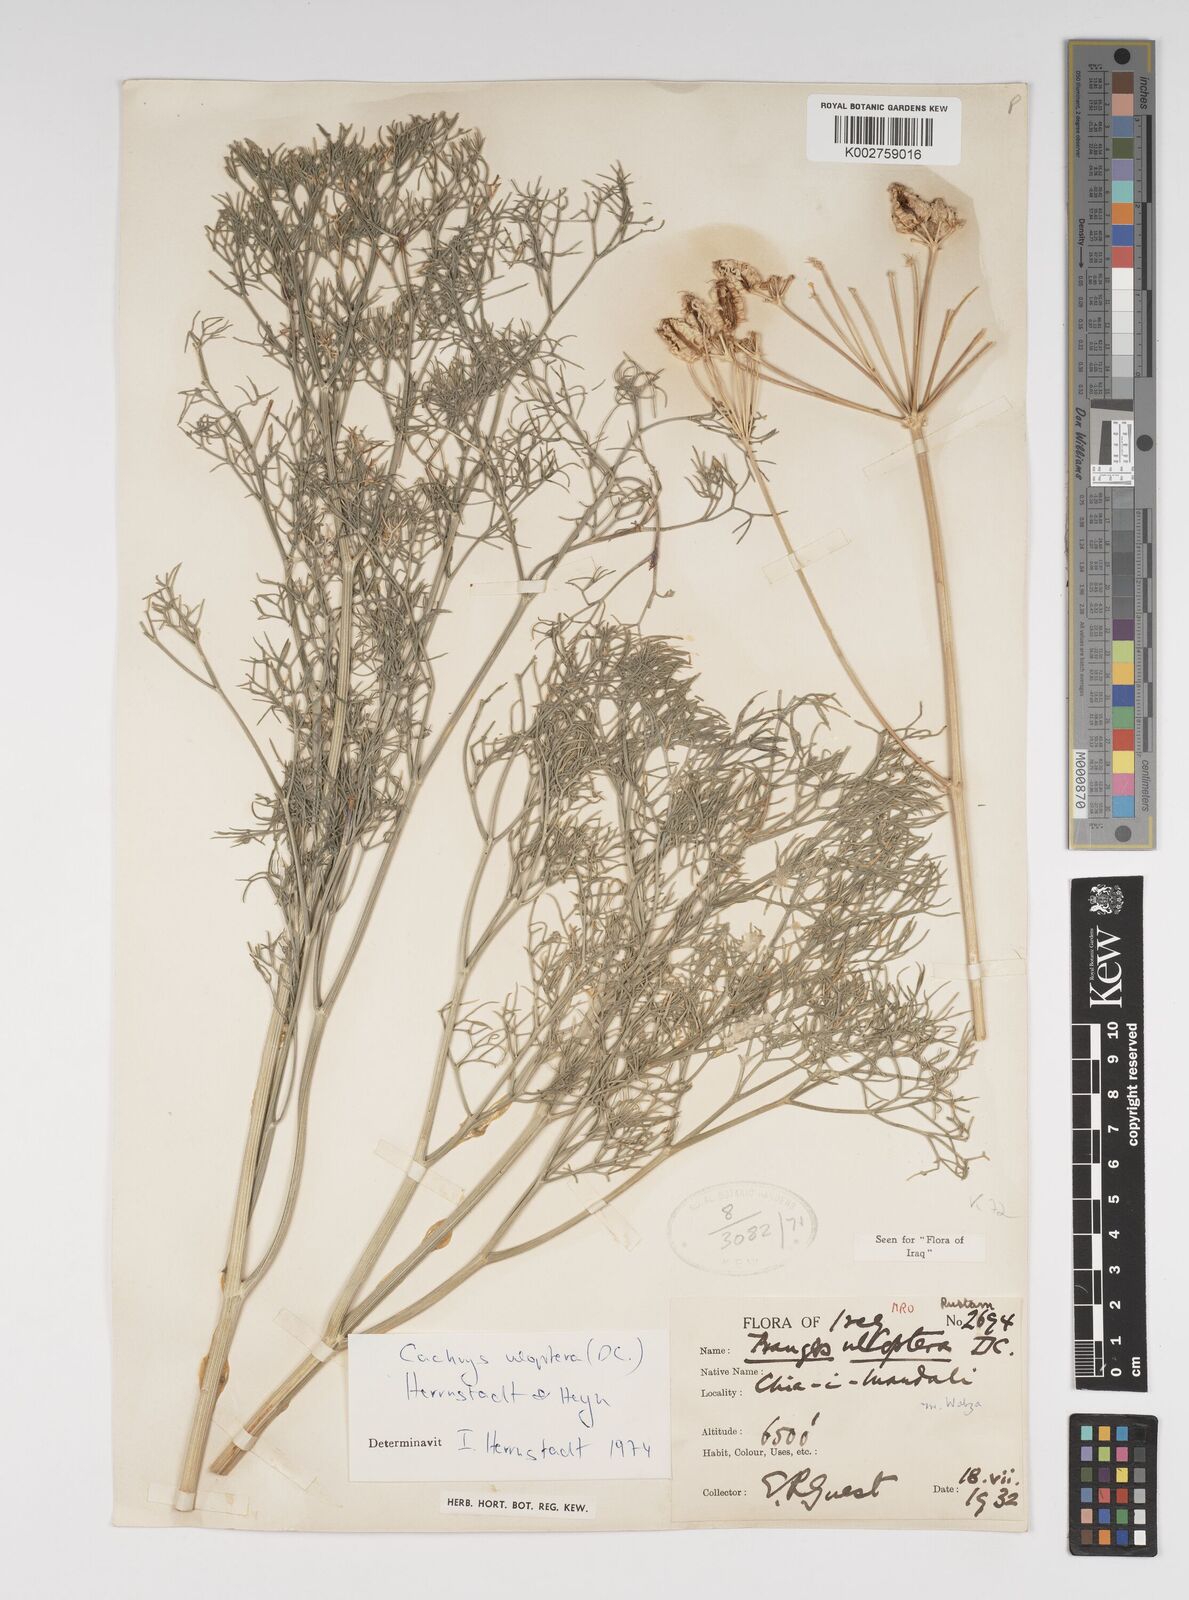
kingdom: Plantae
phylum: Tracheophyta
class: Magnoliopsida
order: Apiales
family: Apiaceae
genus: Prangos
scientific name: Prangos uloptera
